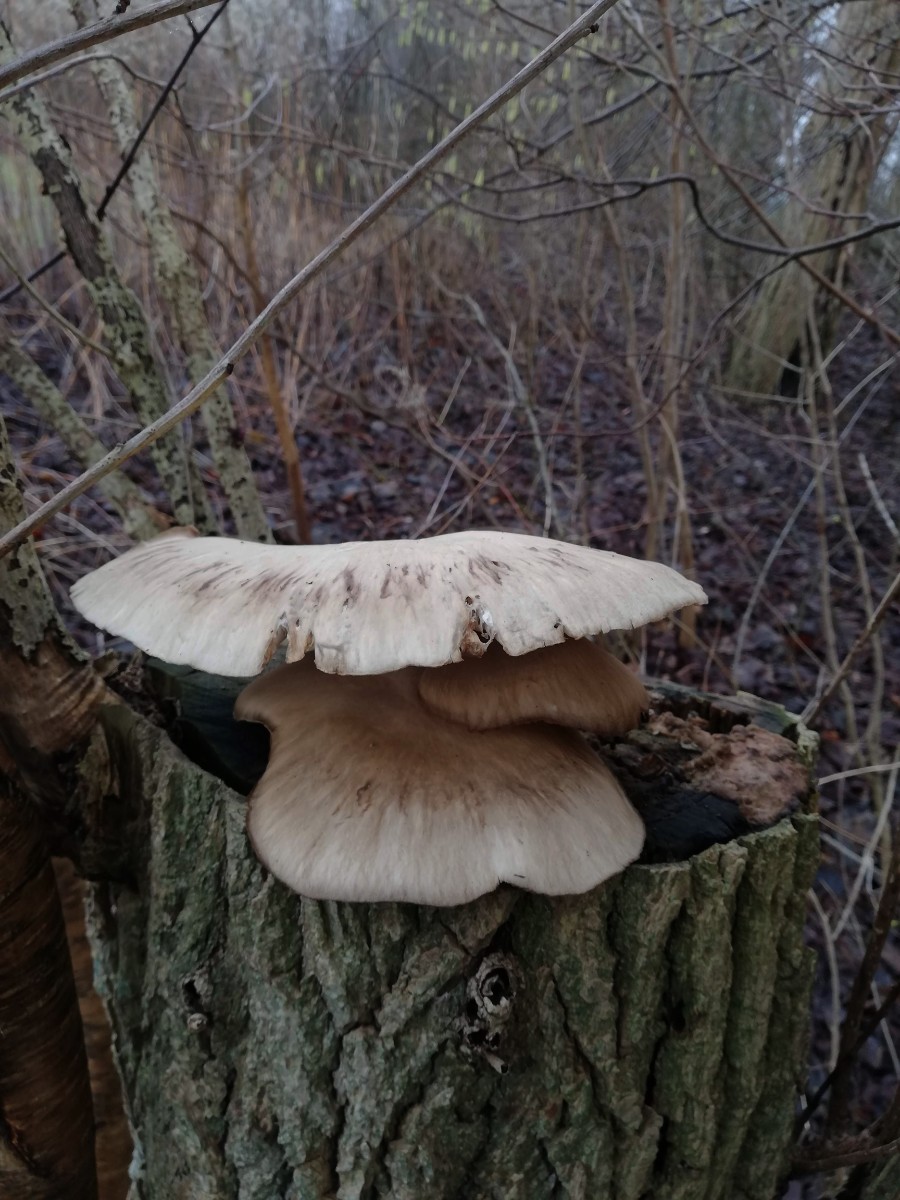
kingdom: Fungi
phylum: Basidiomycota
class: Agaricomycetes
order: Agaricales
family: Pleurotaceae
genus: Pleurotus
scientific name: Pleurotus ostreatus
